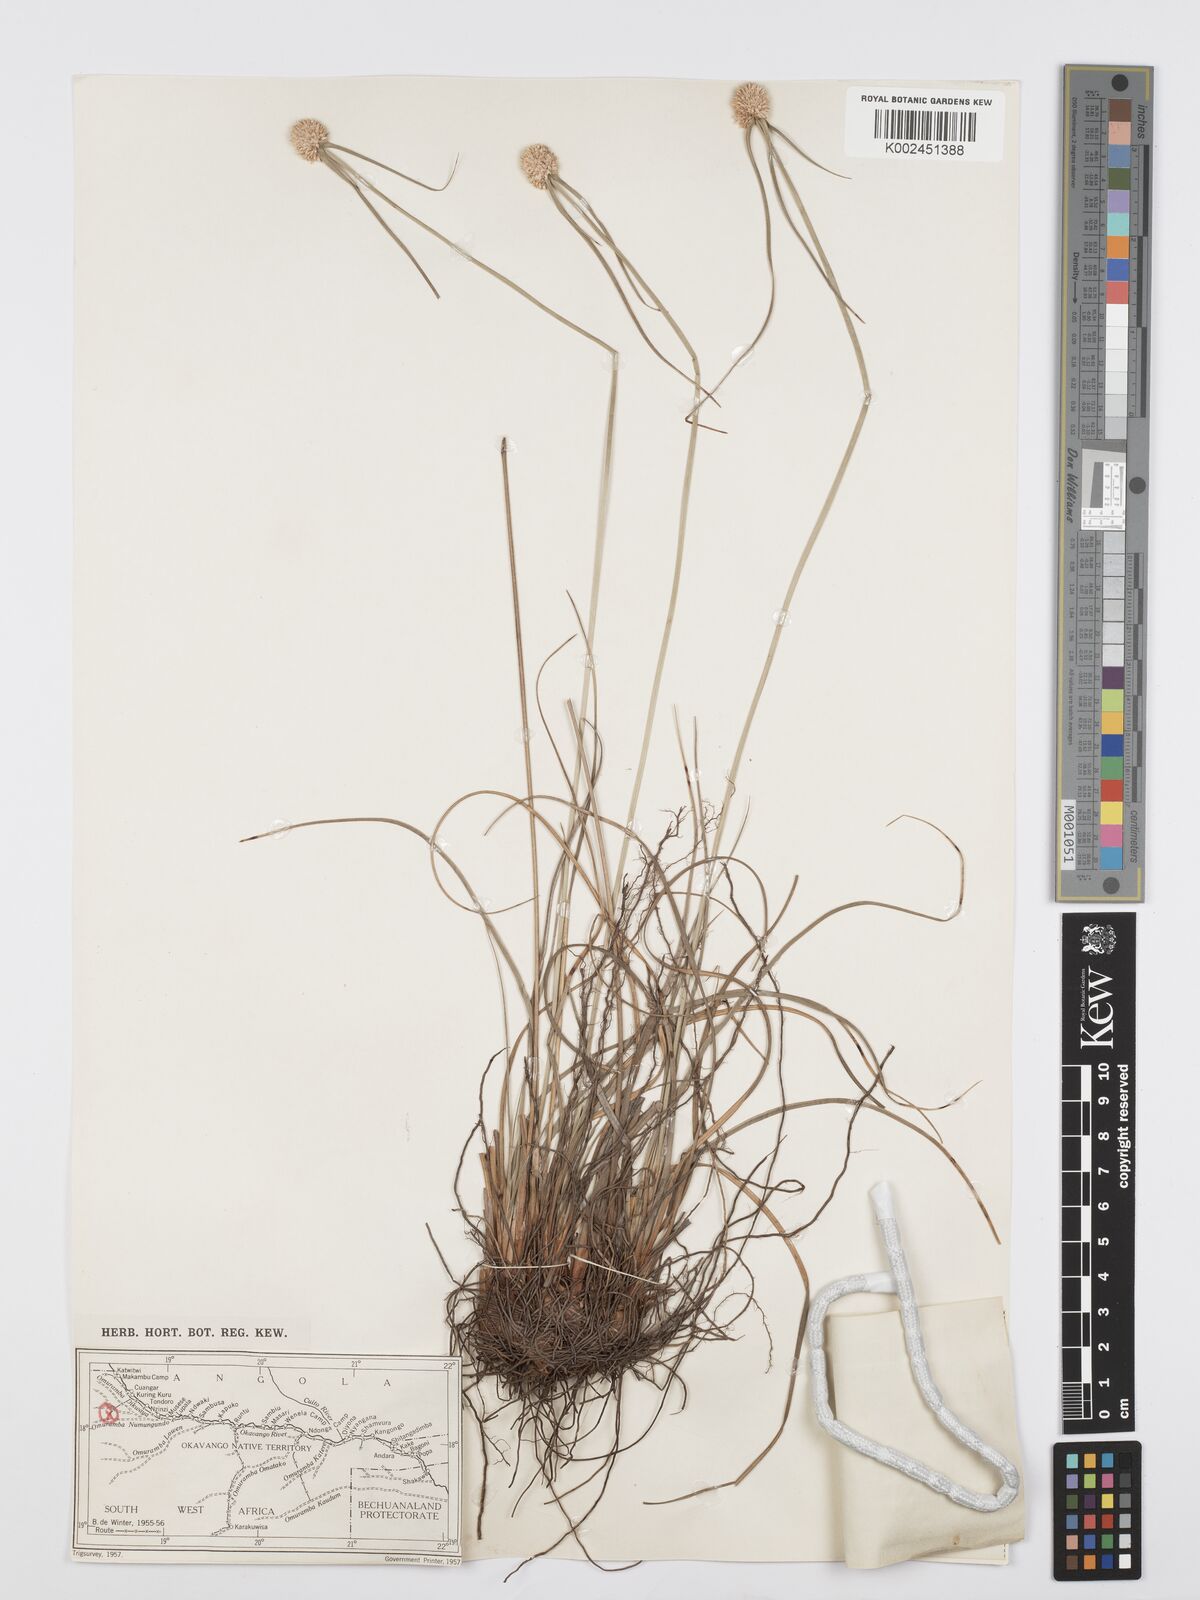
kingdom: Plantae
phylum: Tracheophyta
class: Liliopsida
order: Poales
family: Cyperaceae
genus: Cyperus
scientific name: Cyperus alatus
